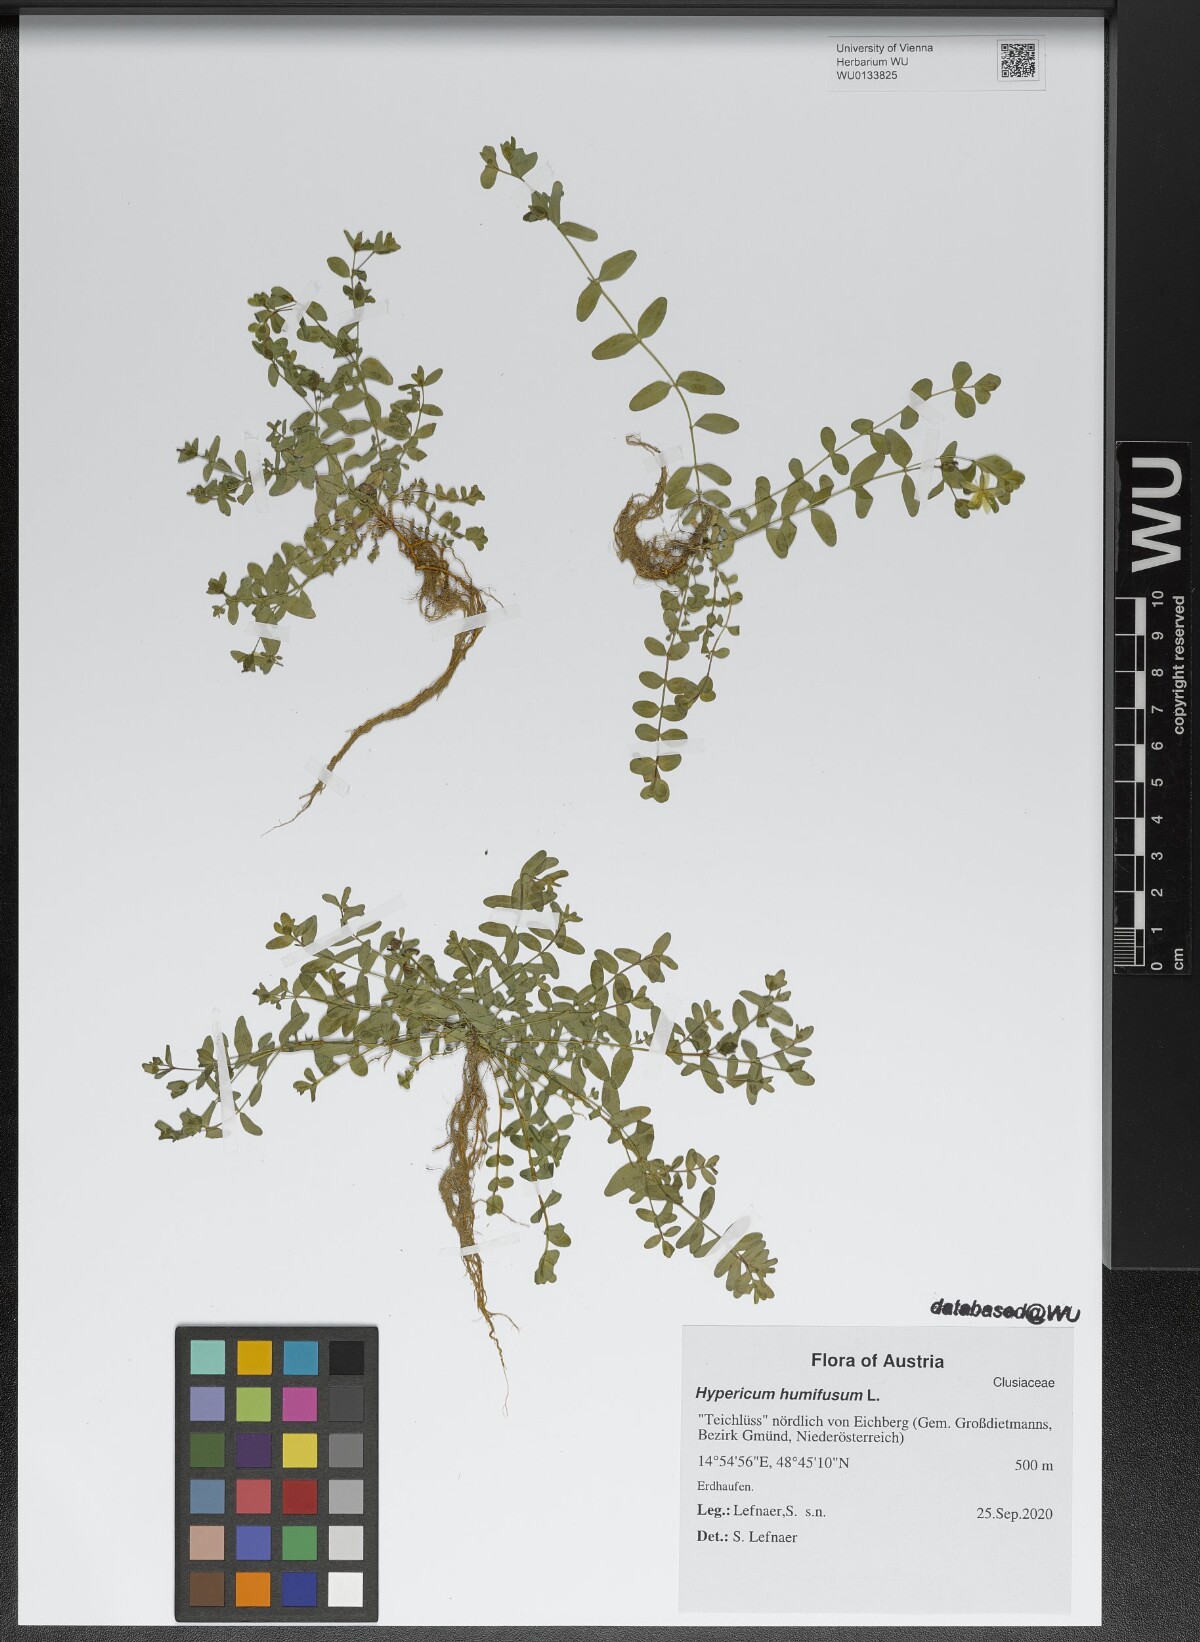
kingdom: Plantae
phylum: Tracheophyta
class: Magnoliopsida
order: Malpighiales
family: Hypericaceae
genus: Hypericum
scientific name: Hypericum humifusum
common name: Trailing st. john's-wort
